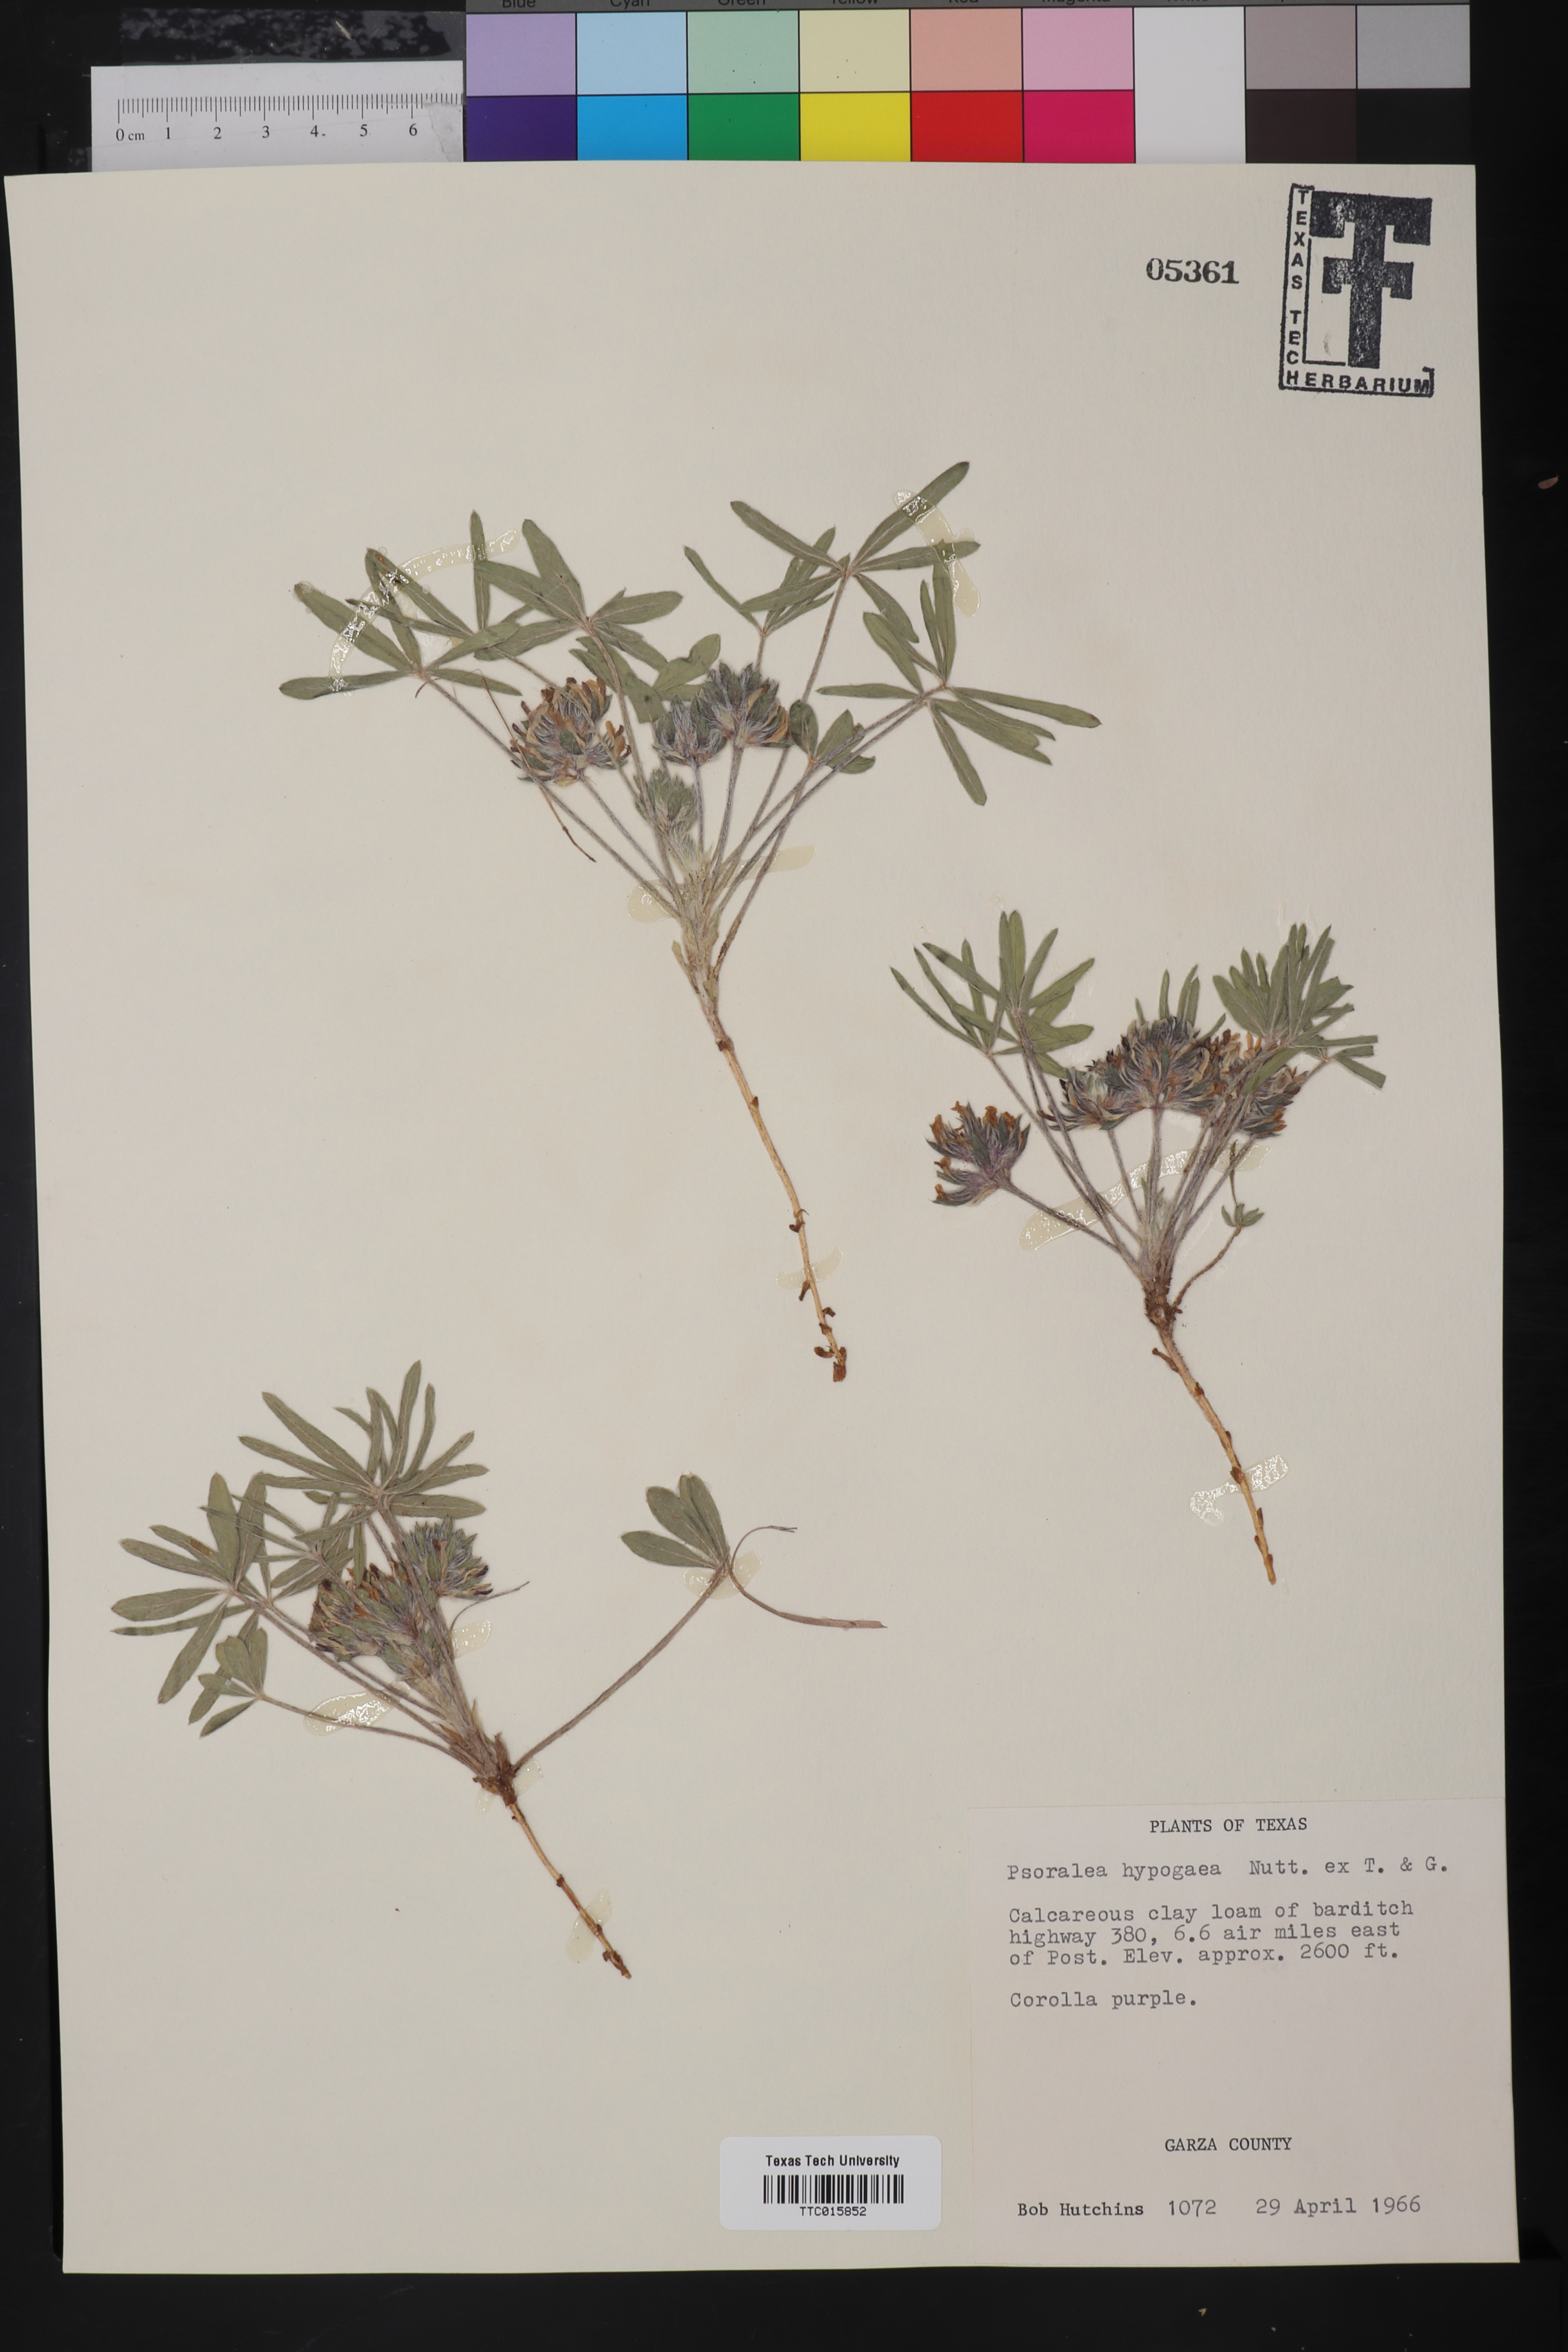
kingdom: Plantae
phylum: Tracheophyta
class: Magnoliopsida
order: Fabales
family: Fabaceae
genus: Pediomelum
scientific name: Pediomelum hypogaeum
